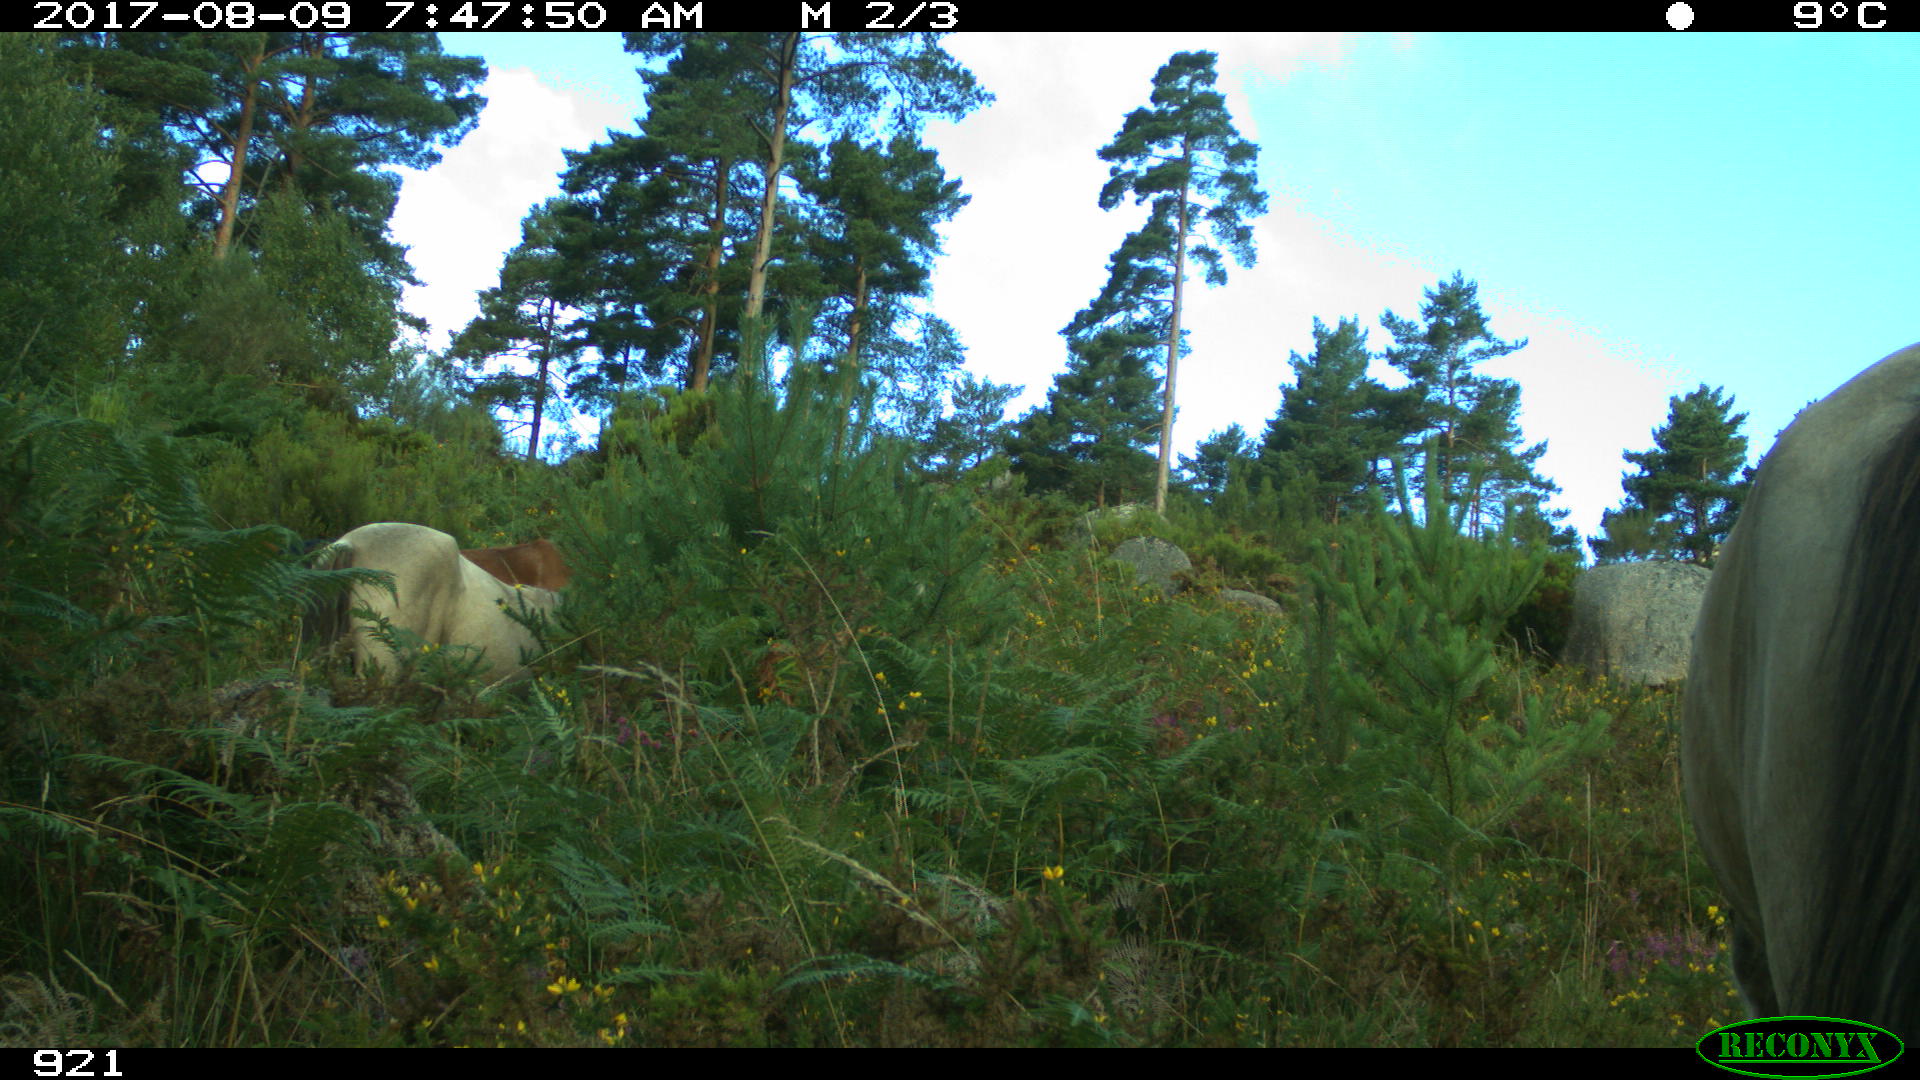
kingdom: Animalia
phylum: Chordata
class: Mammalia
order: Perissodactyla
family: Equidae
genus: Equus
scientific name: Equus caballus
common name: Horse
